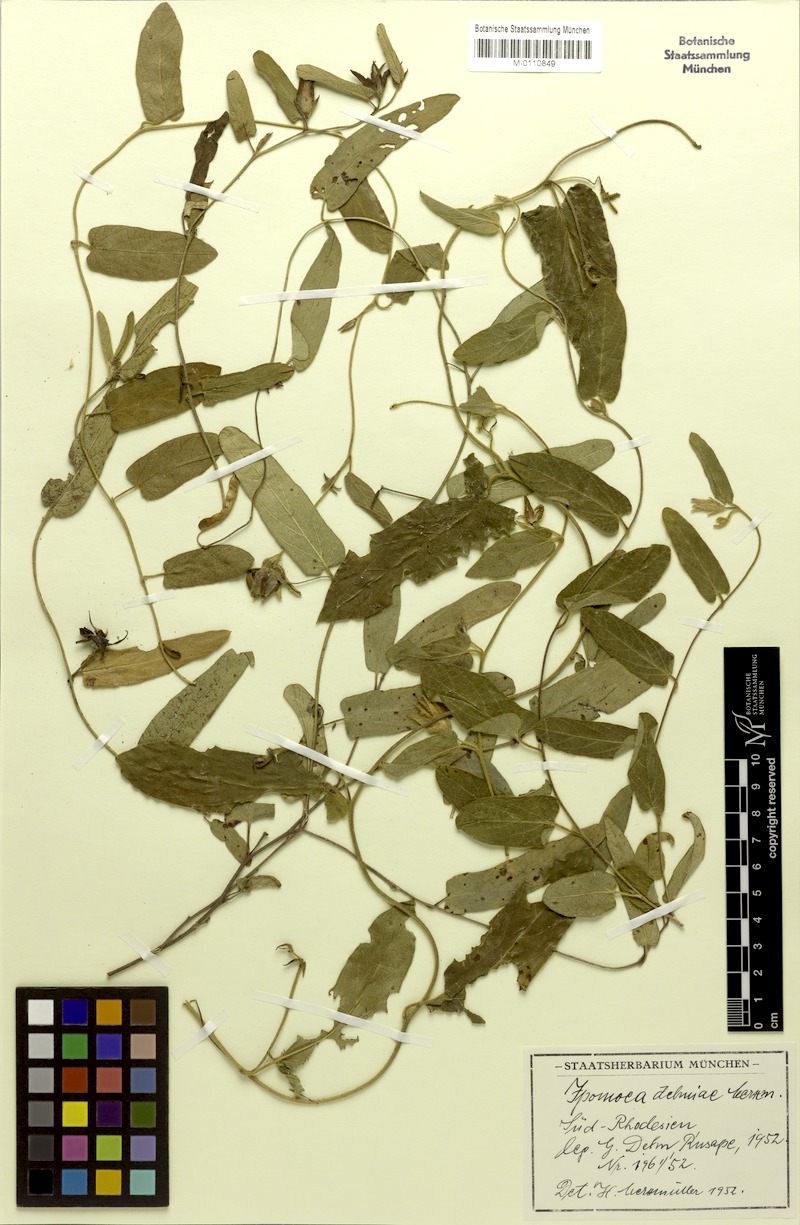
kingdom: Plantae
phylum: Tracheophyta
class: Magnoliopsida
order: Solanales
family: Convolvulaceae
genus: Ipomoea
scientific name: Ipomoea fulvicaulis
